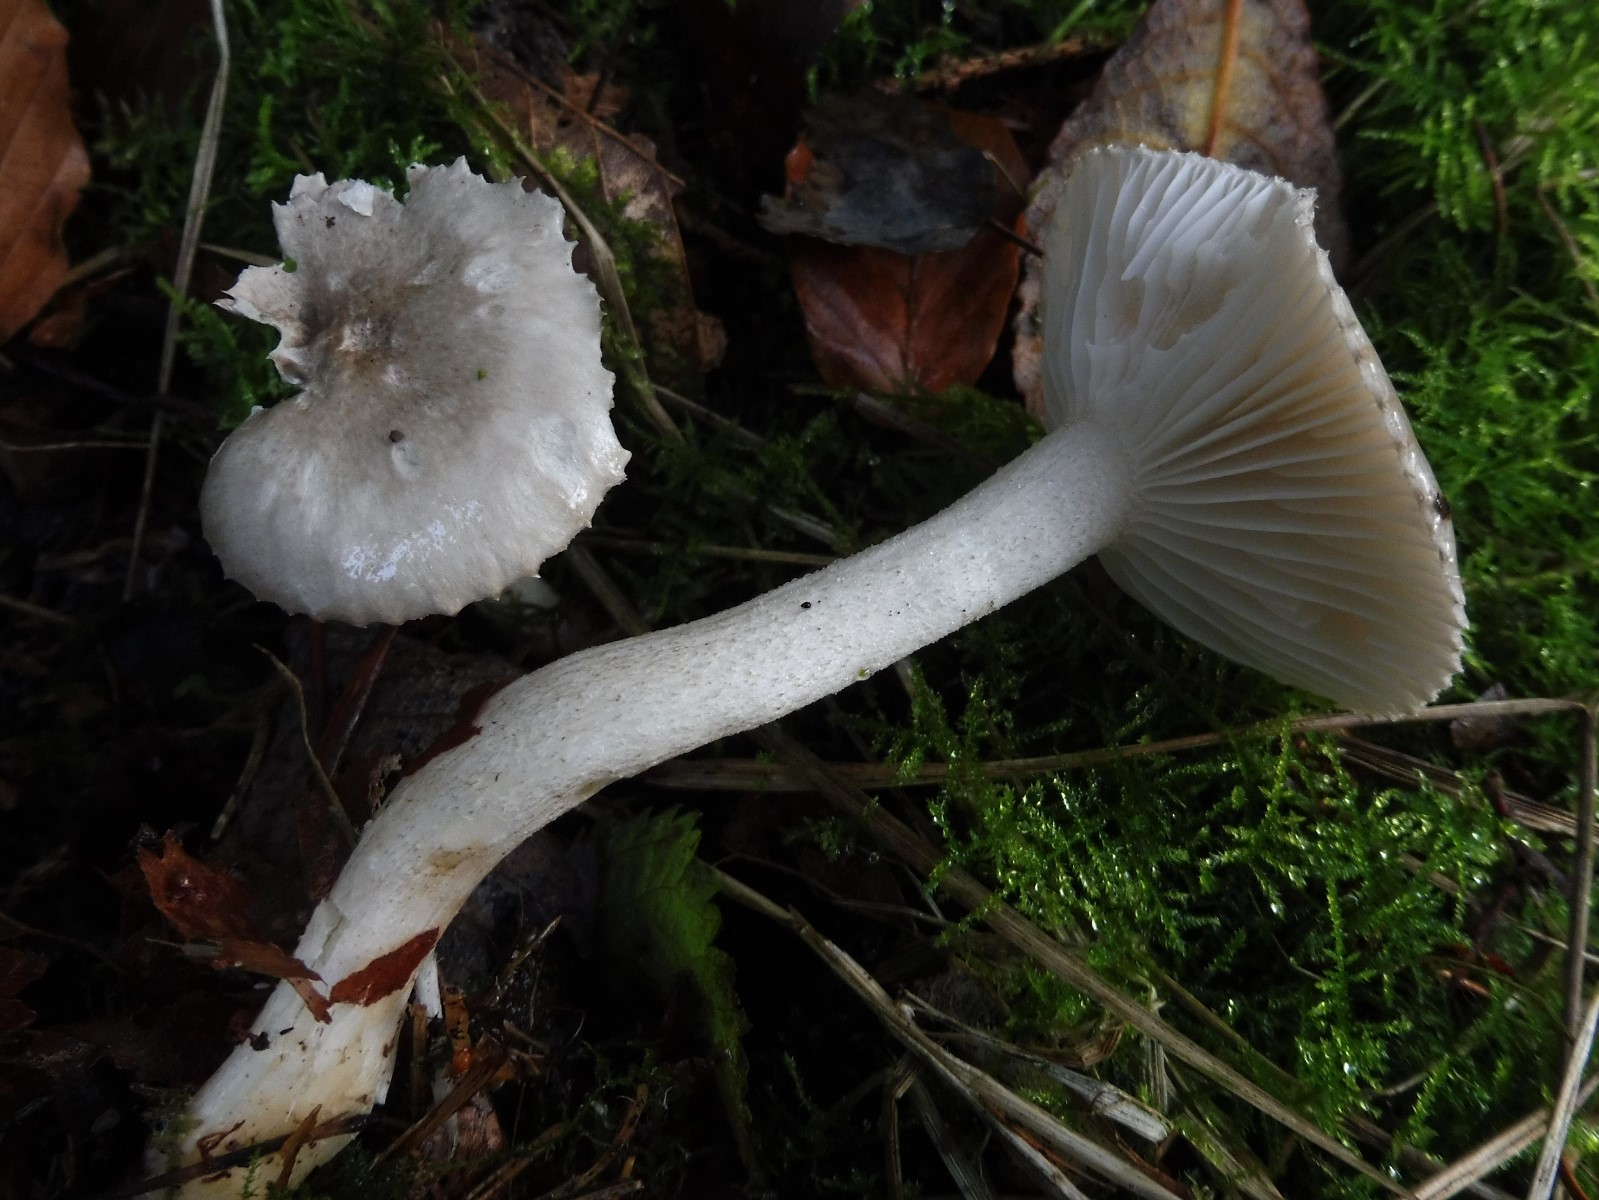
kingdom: Fungi
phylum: Basidiomycota
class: Agaricomycetes
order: Agaricales
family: Hygrophoraceae
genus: Hygrophorus
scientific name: Hygrophorus pustulatus
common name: mørkprikket sneglehat
